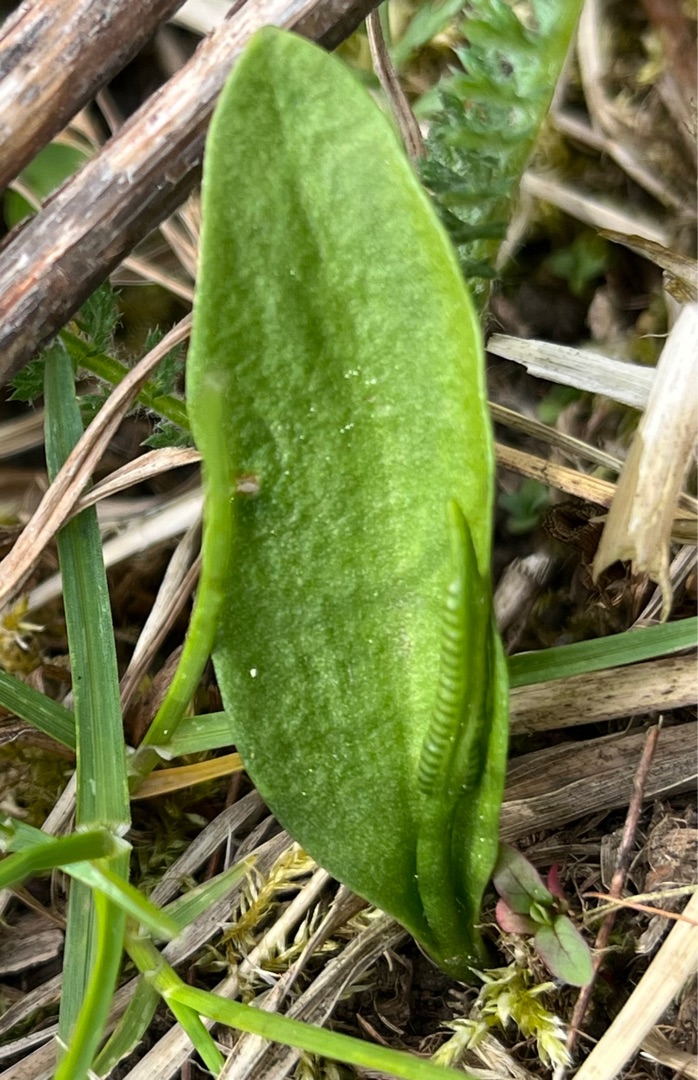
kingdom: Plantae
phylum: Tracheophyta
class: Polypodiopsida
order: Ophioglossales
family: Ophioglossaceae
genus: Ophioglossum
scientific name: Ophioglossum vulgatum
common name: Slangetunge
